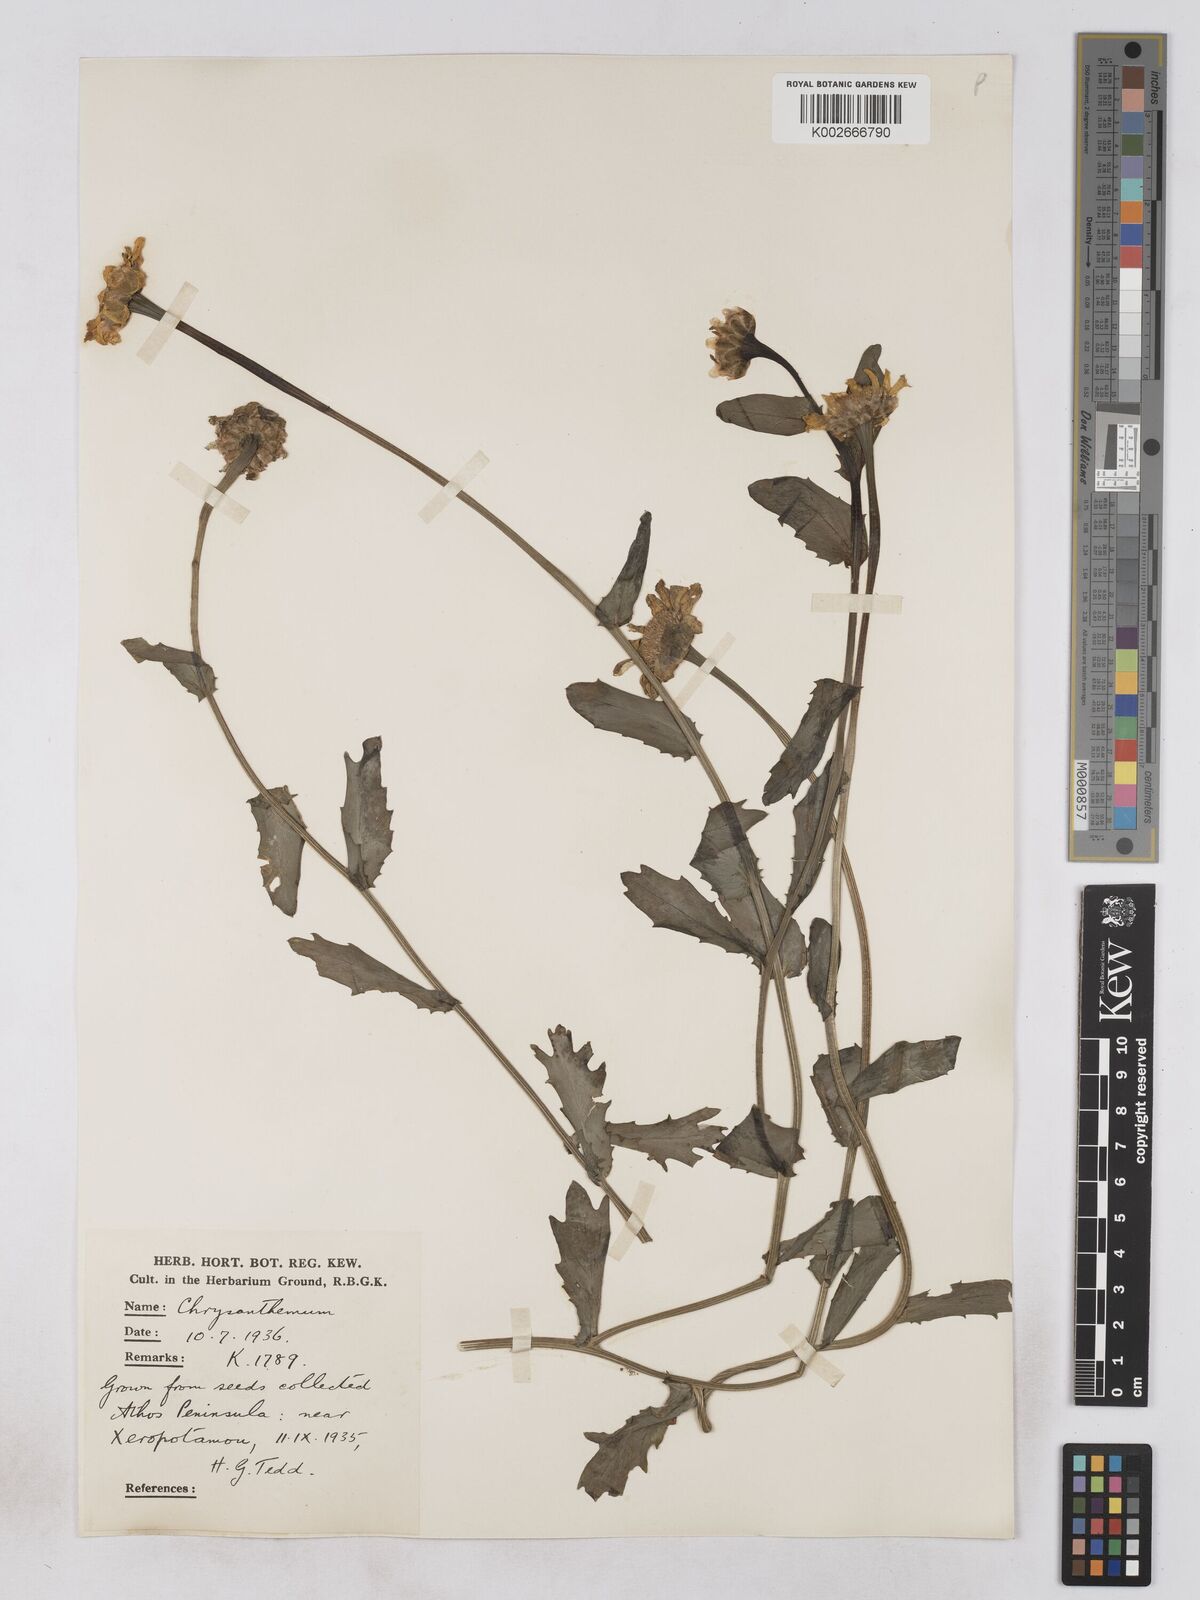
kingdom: Plantae
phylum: Tracheophyta
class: Magnoliopsida
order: Asterales
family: Asteraceae
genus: Glebionis
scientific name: Glebionis segetum
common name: Corndaisy
